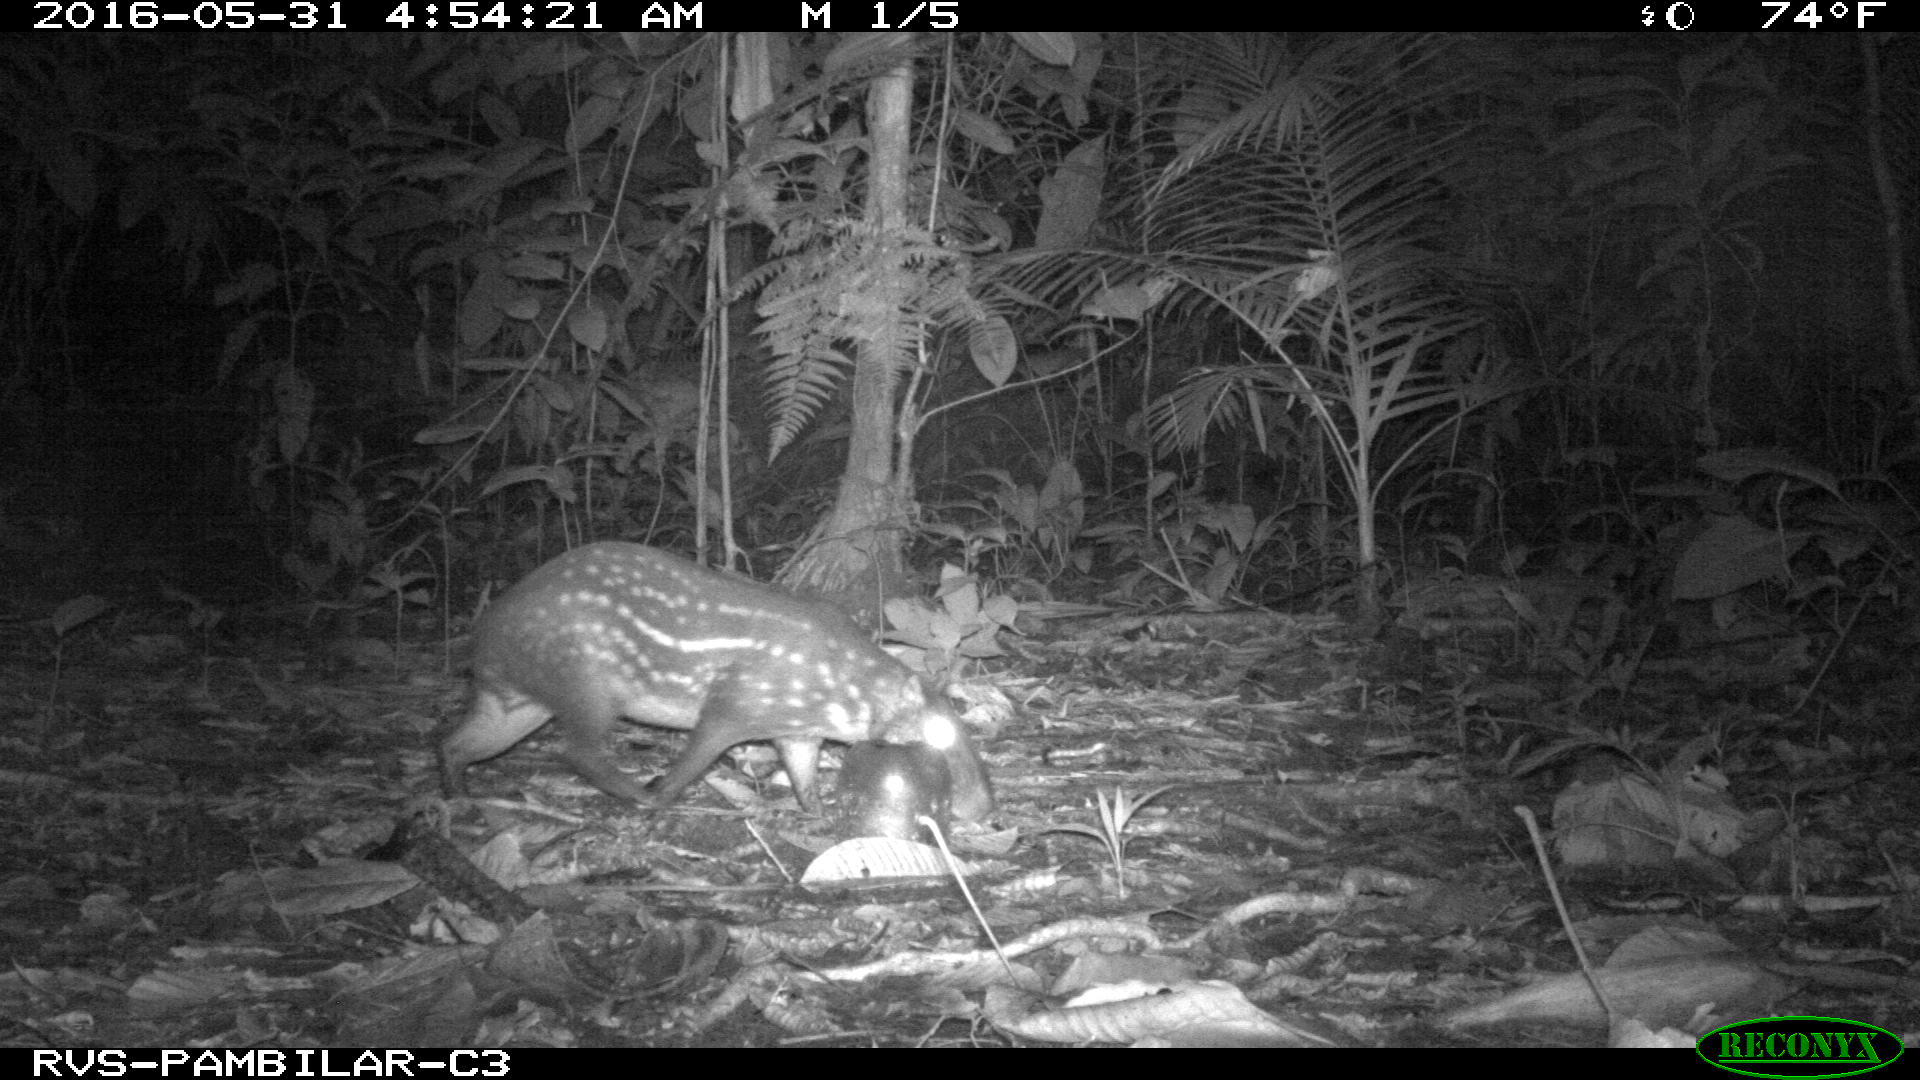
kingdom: Animalia
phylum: Chordata
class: Mammalia
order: Rodentia
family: Cuniculidae
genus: Cuniculus
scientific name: Cuniculus paca
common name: Lowland paca
